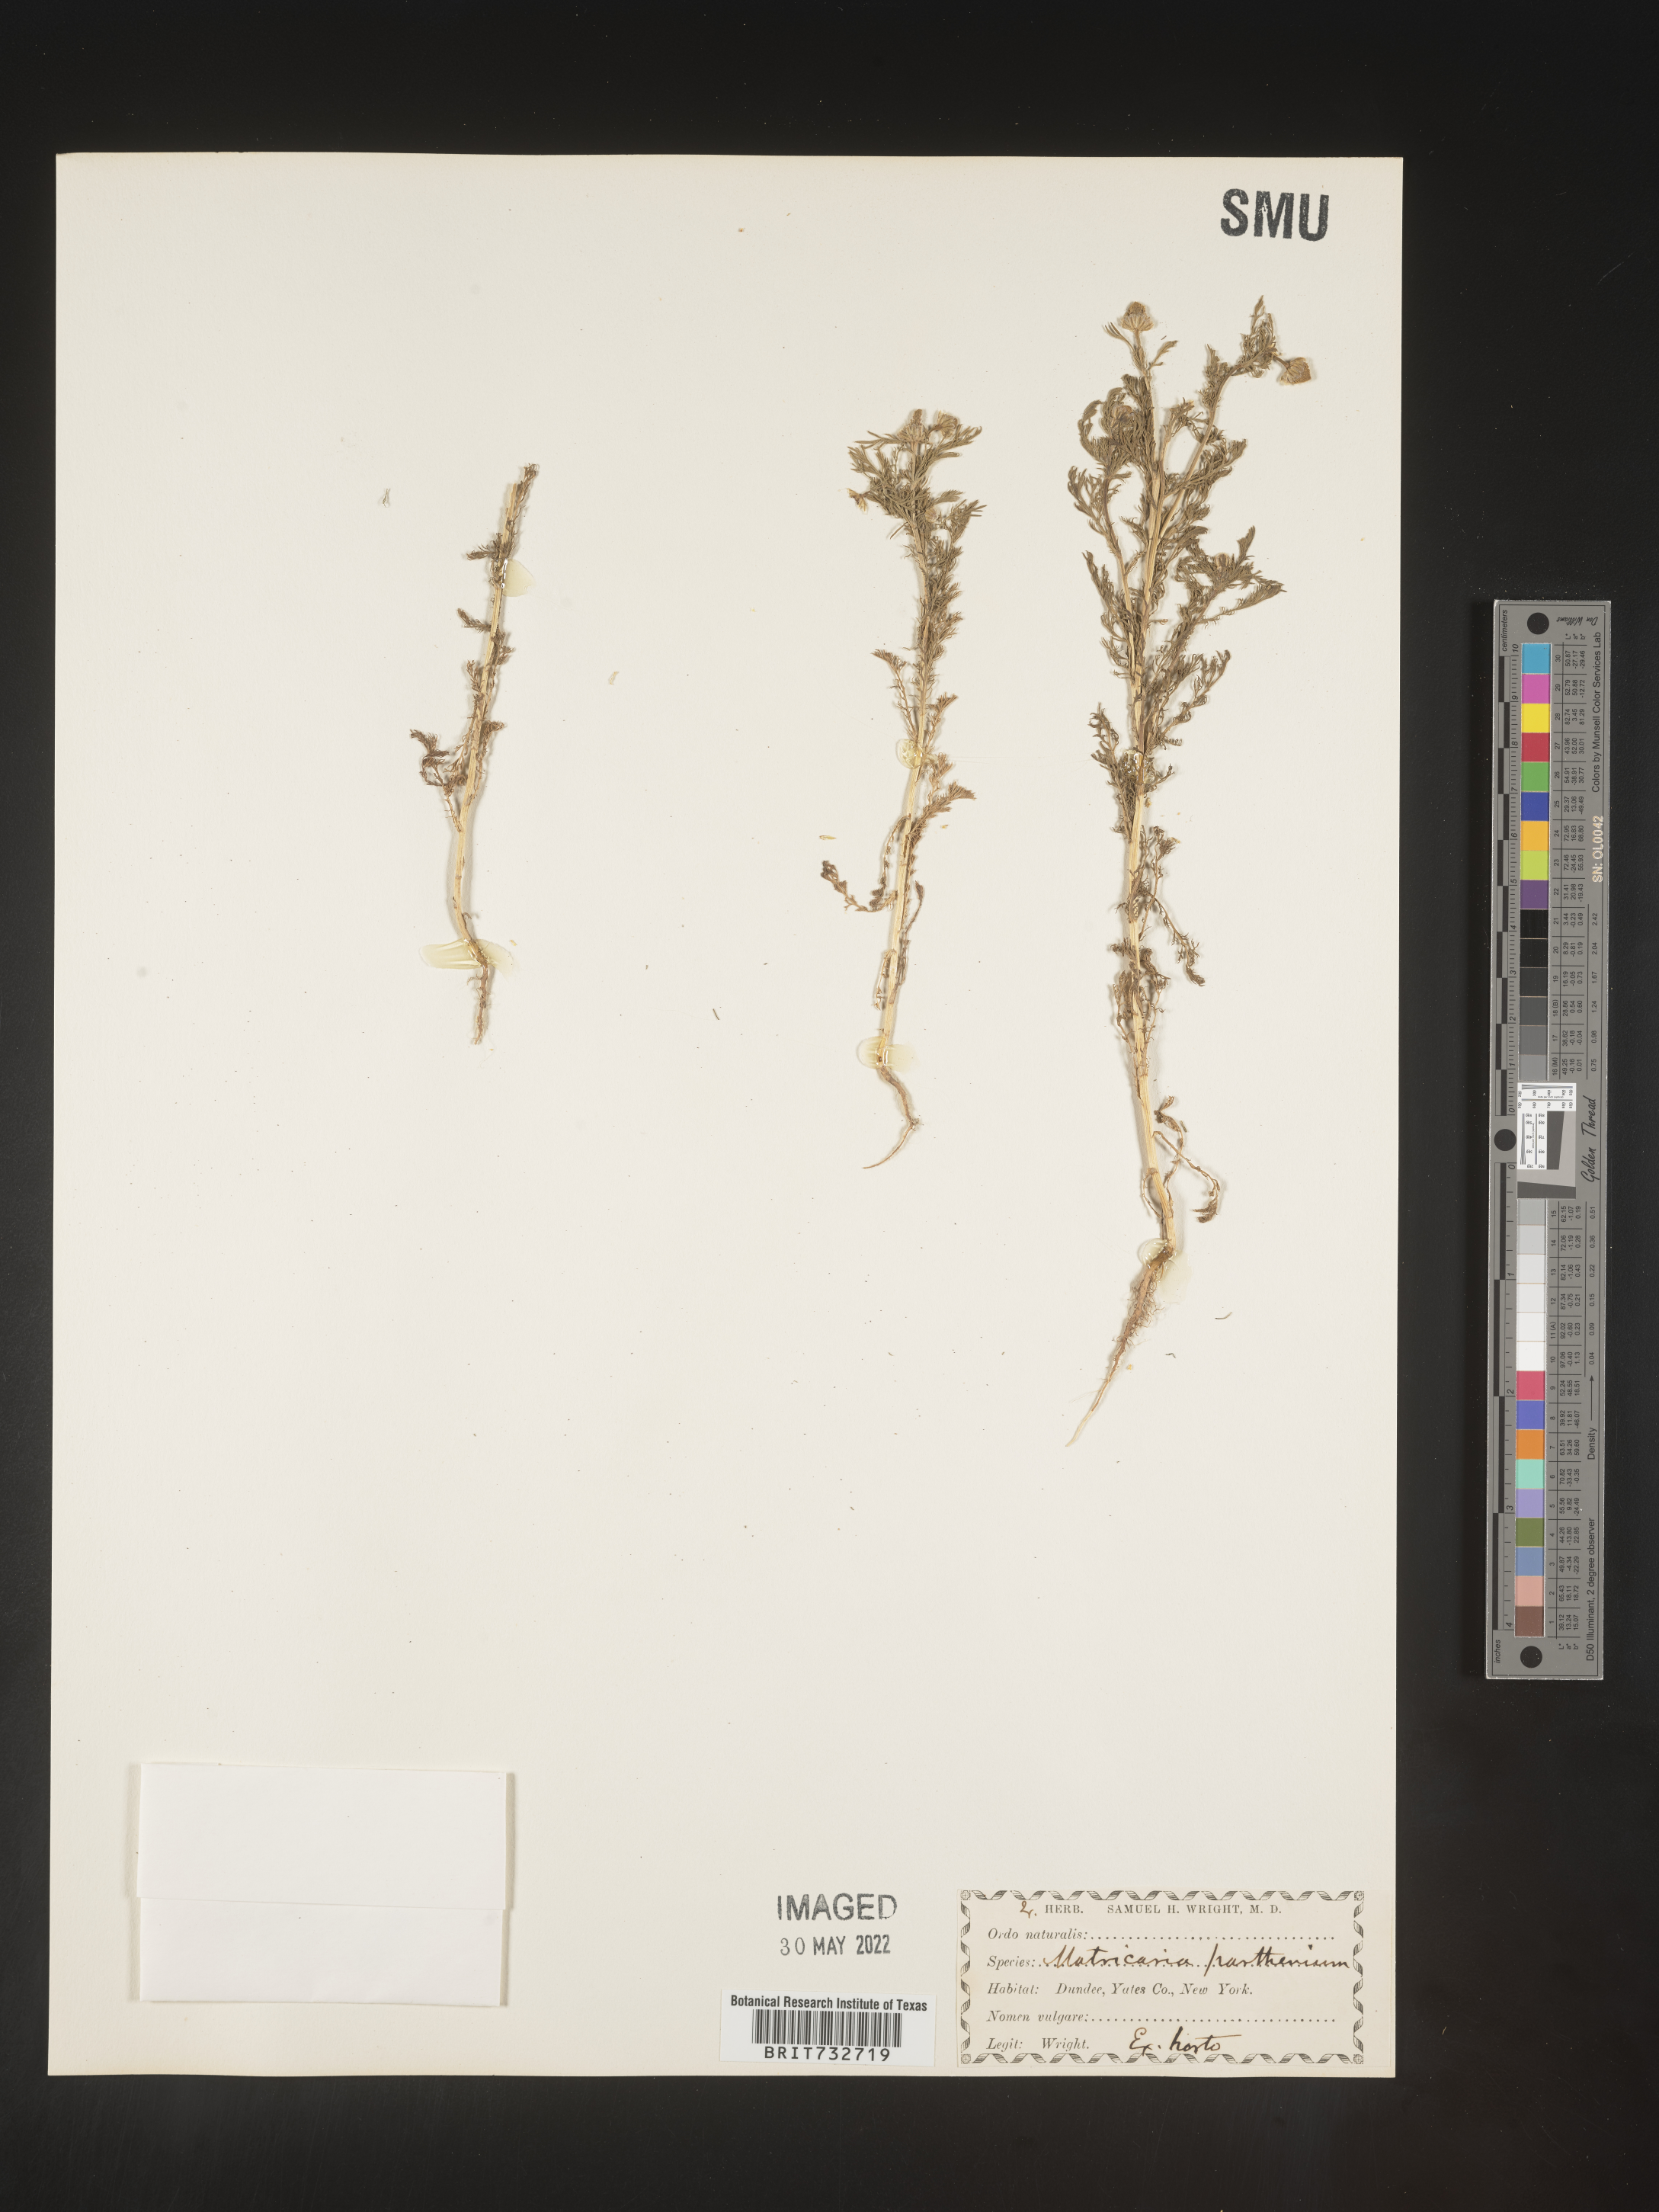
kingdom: Plantae
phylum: Tracheophyta
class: Magnoliopsida
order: Asterales
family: Asteraceae
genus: Matricaria
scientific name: Matricaria
